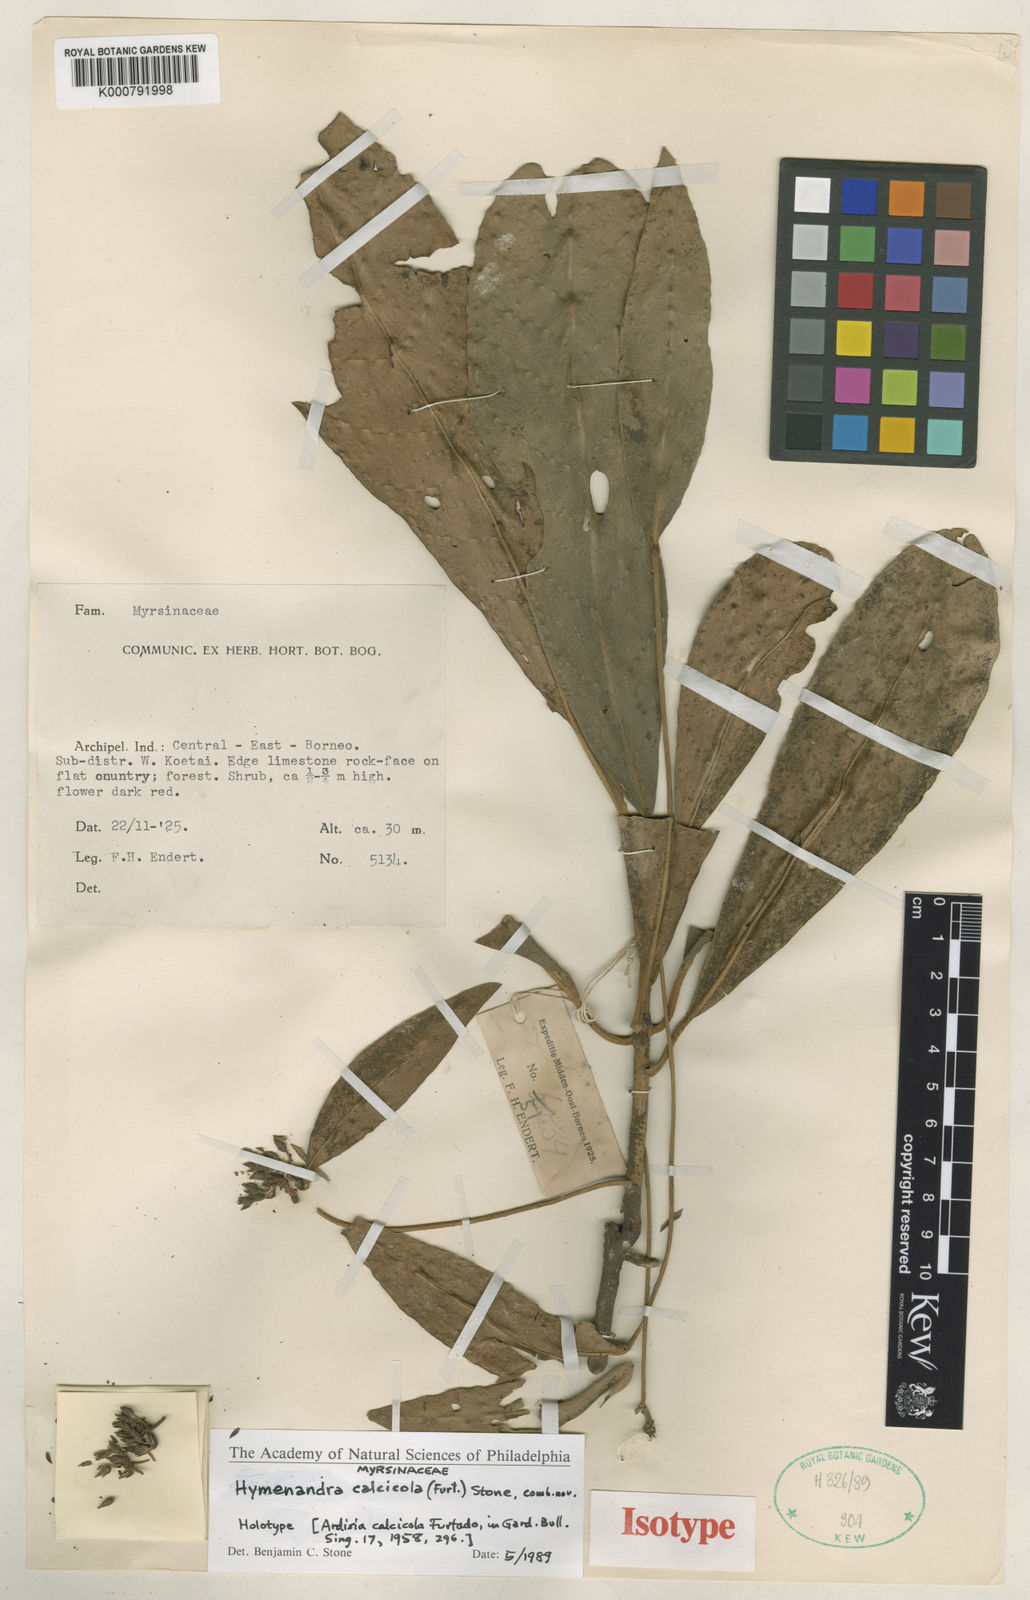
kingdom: Plantae
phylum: Tracheophyta
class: Magnoliopsida
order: Ericales
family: Primulaceae
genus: Hymenandra
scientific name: Hymenandra calcicola
